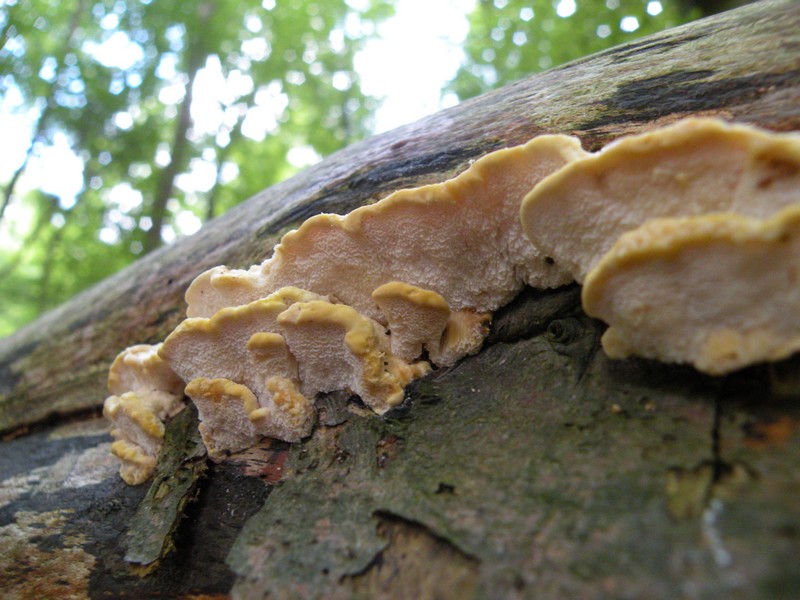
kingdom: Fungi
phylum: Basidiomycota
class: Agaricomycetes
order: Polyporales
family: Steccherinaceae
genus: Antrodiella
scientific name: Antrodiella serpula
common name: gulrandet elastikporesvamp
